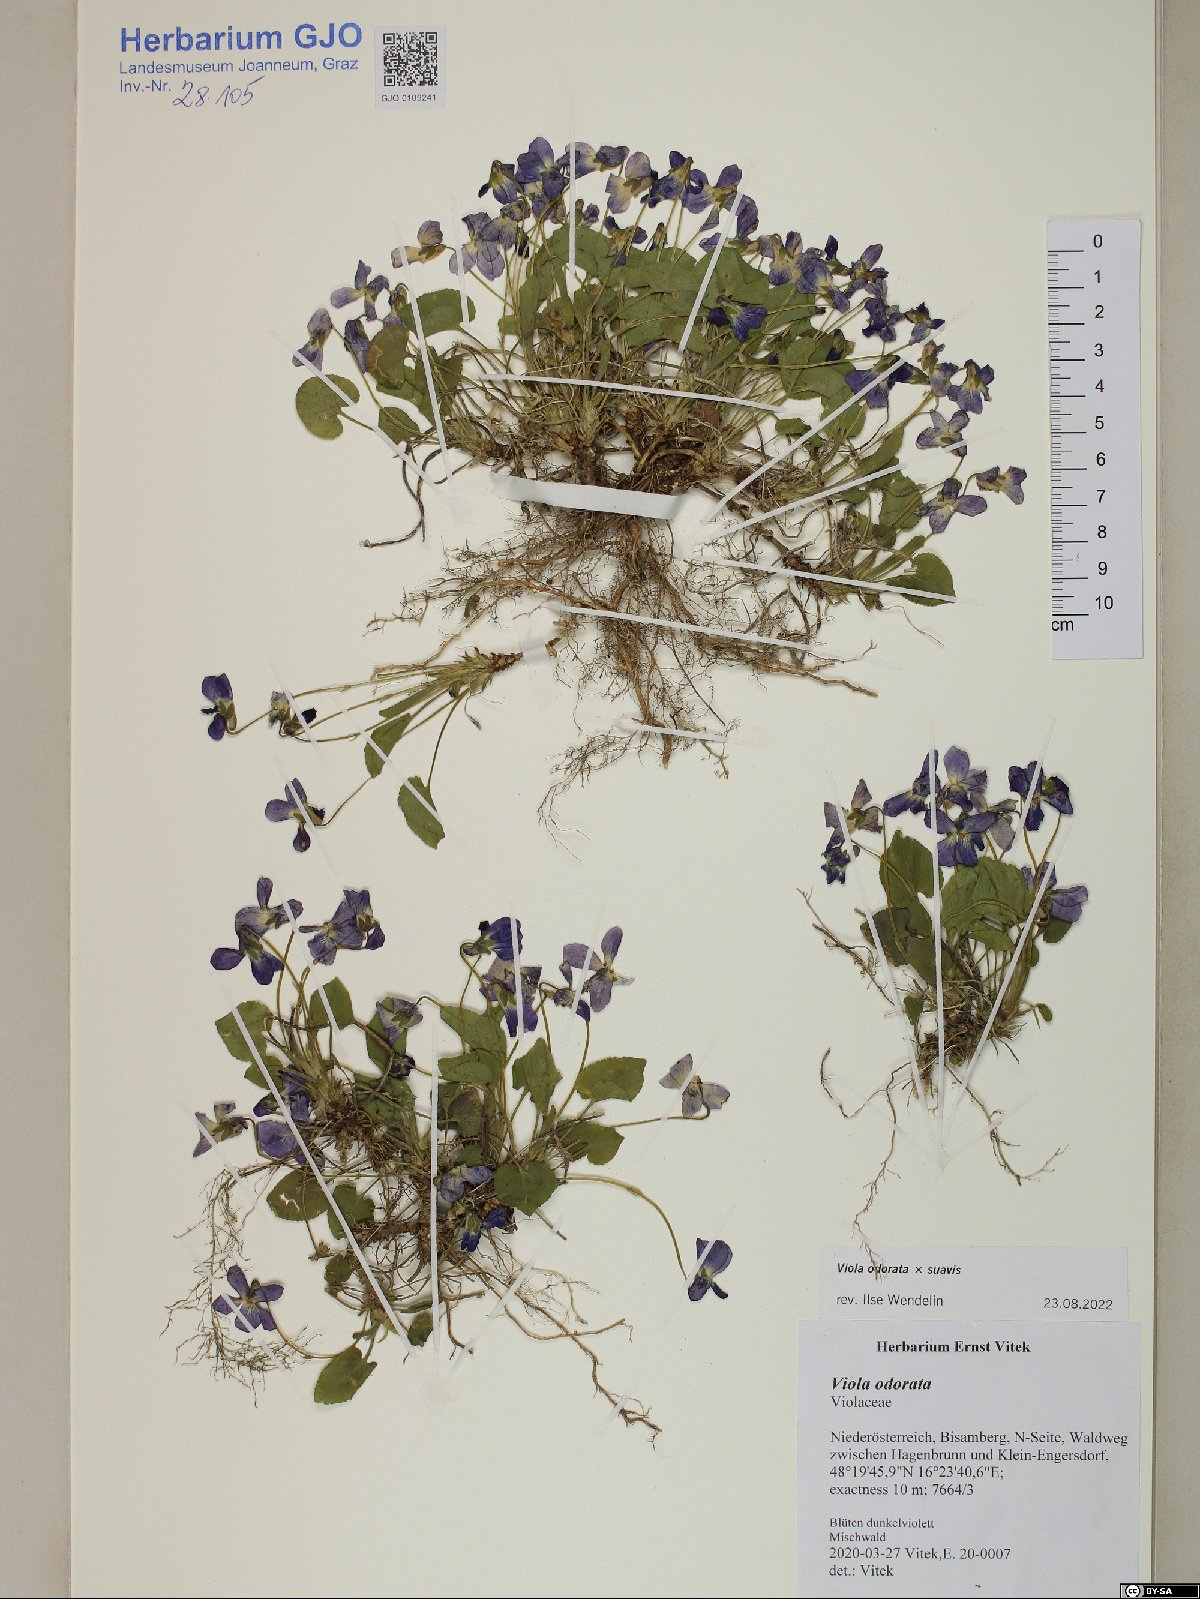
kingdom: Plantae
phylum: Tracheophyta
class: Magnoliopsida
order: Malpighiales
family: Violaceae
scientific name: Violaceae
